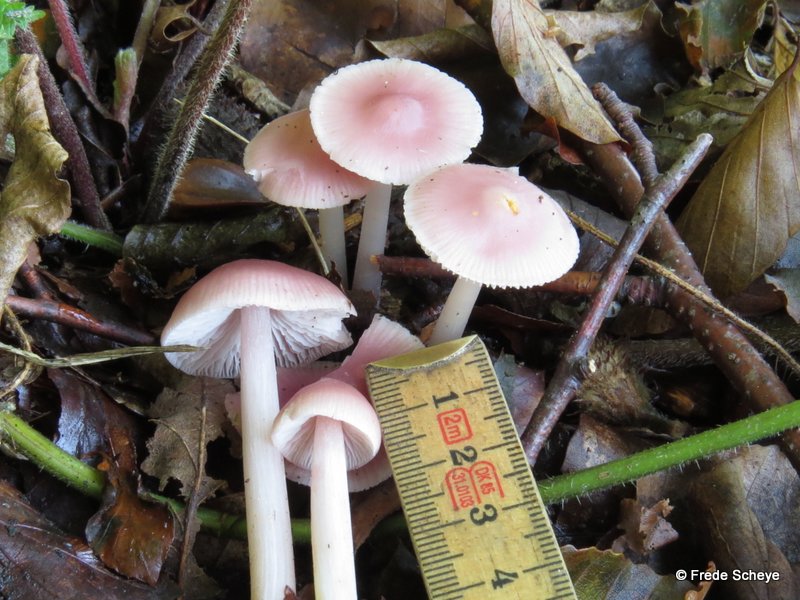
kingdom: Fungi
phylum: Basidiomycota
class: Agaricomycetes
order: Agaricales
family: Mycenaceae
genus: Mycena
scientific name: Mycena rosea
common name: rosa huesvamp
